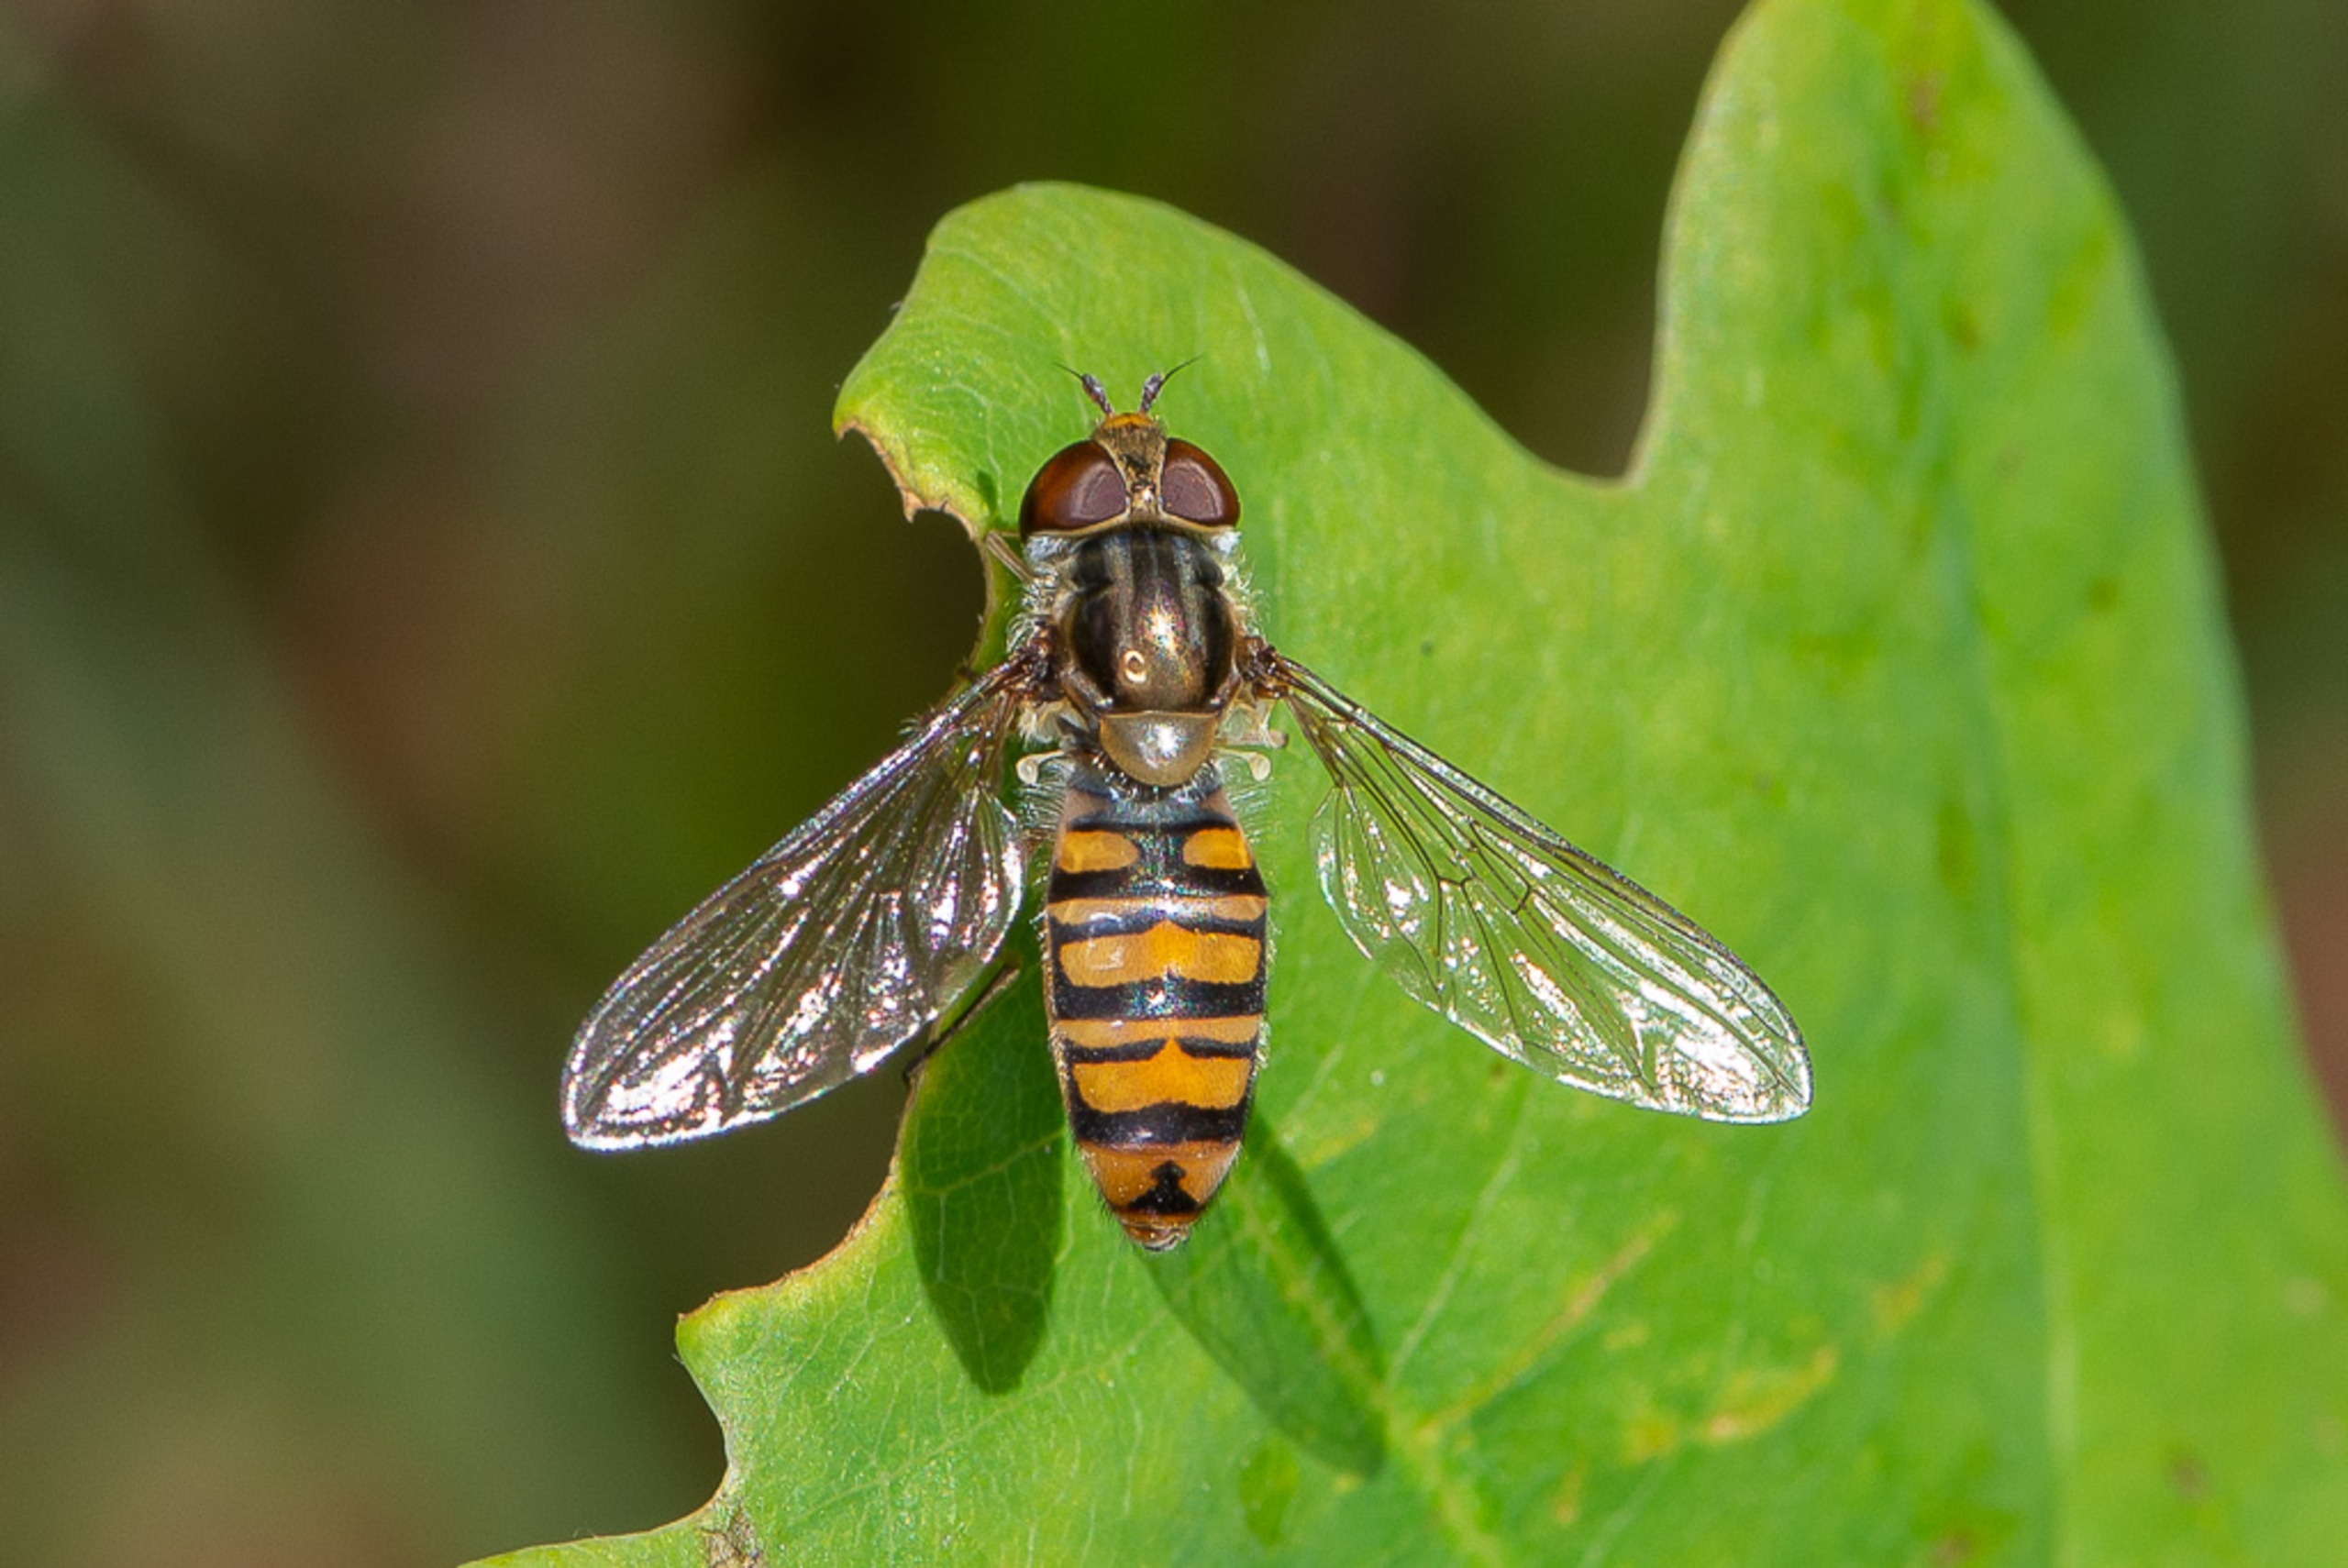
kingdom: Animalia
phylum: Arthropoda
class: Insecta
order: Diptera
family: Syrphidae
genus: Episyrphus
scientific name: Episyrphus balteatus
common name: Dobbeltbåndet svirreflue
